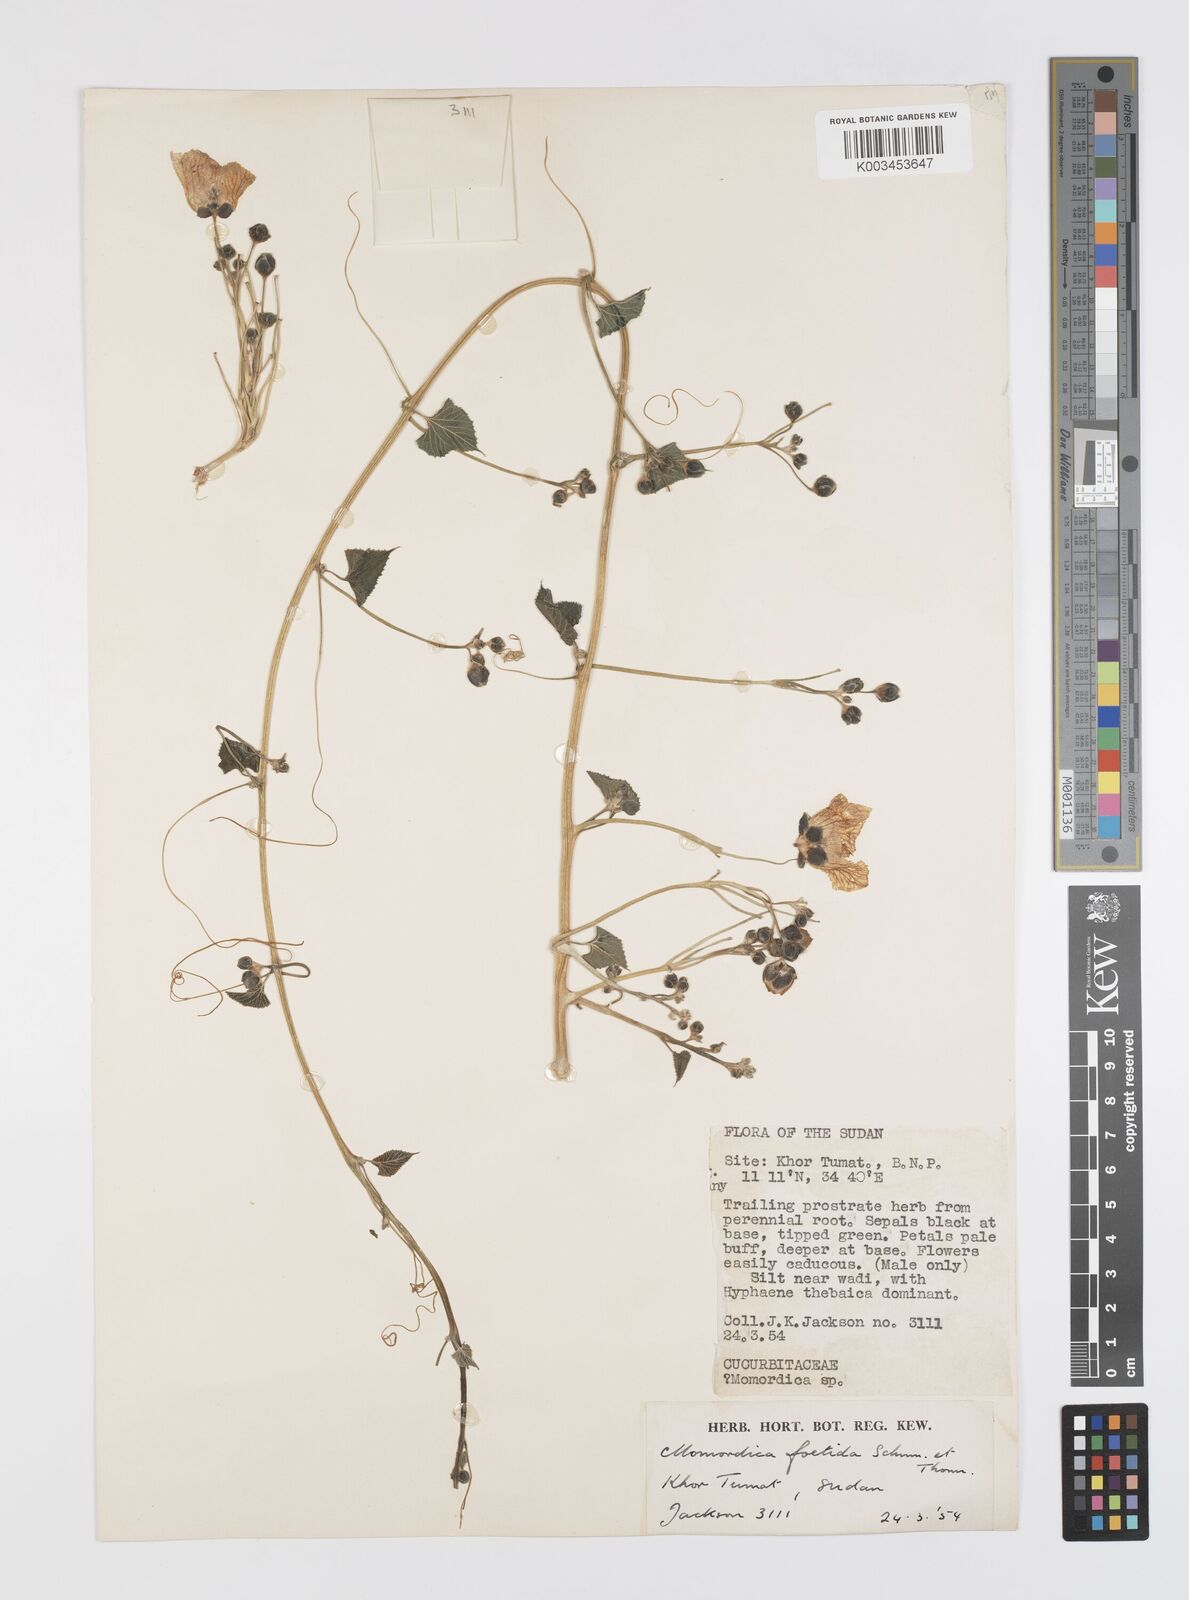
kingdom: Plantae
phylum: Tracheophyta
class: Magnoliopsida
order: Cucurbitales
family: Cucurbitaceae
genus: Momordica
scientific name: Momordica foetida
